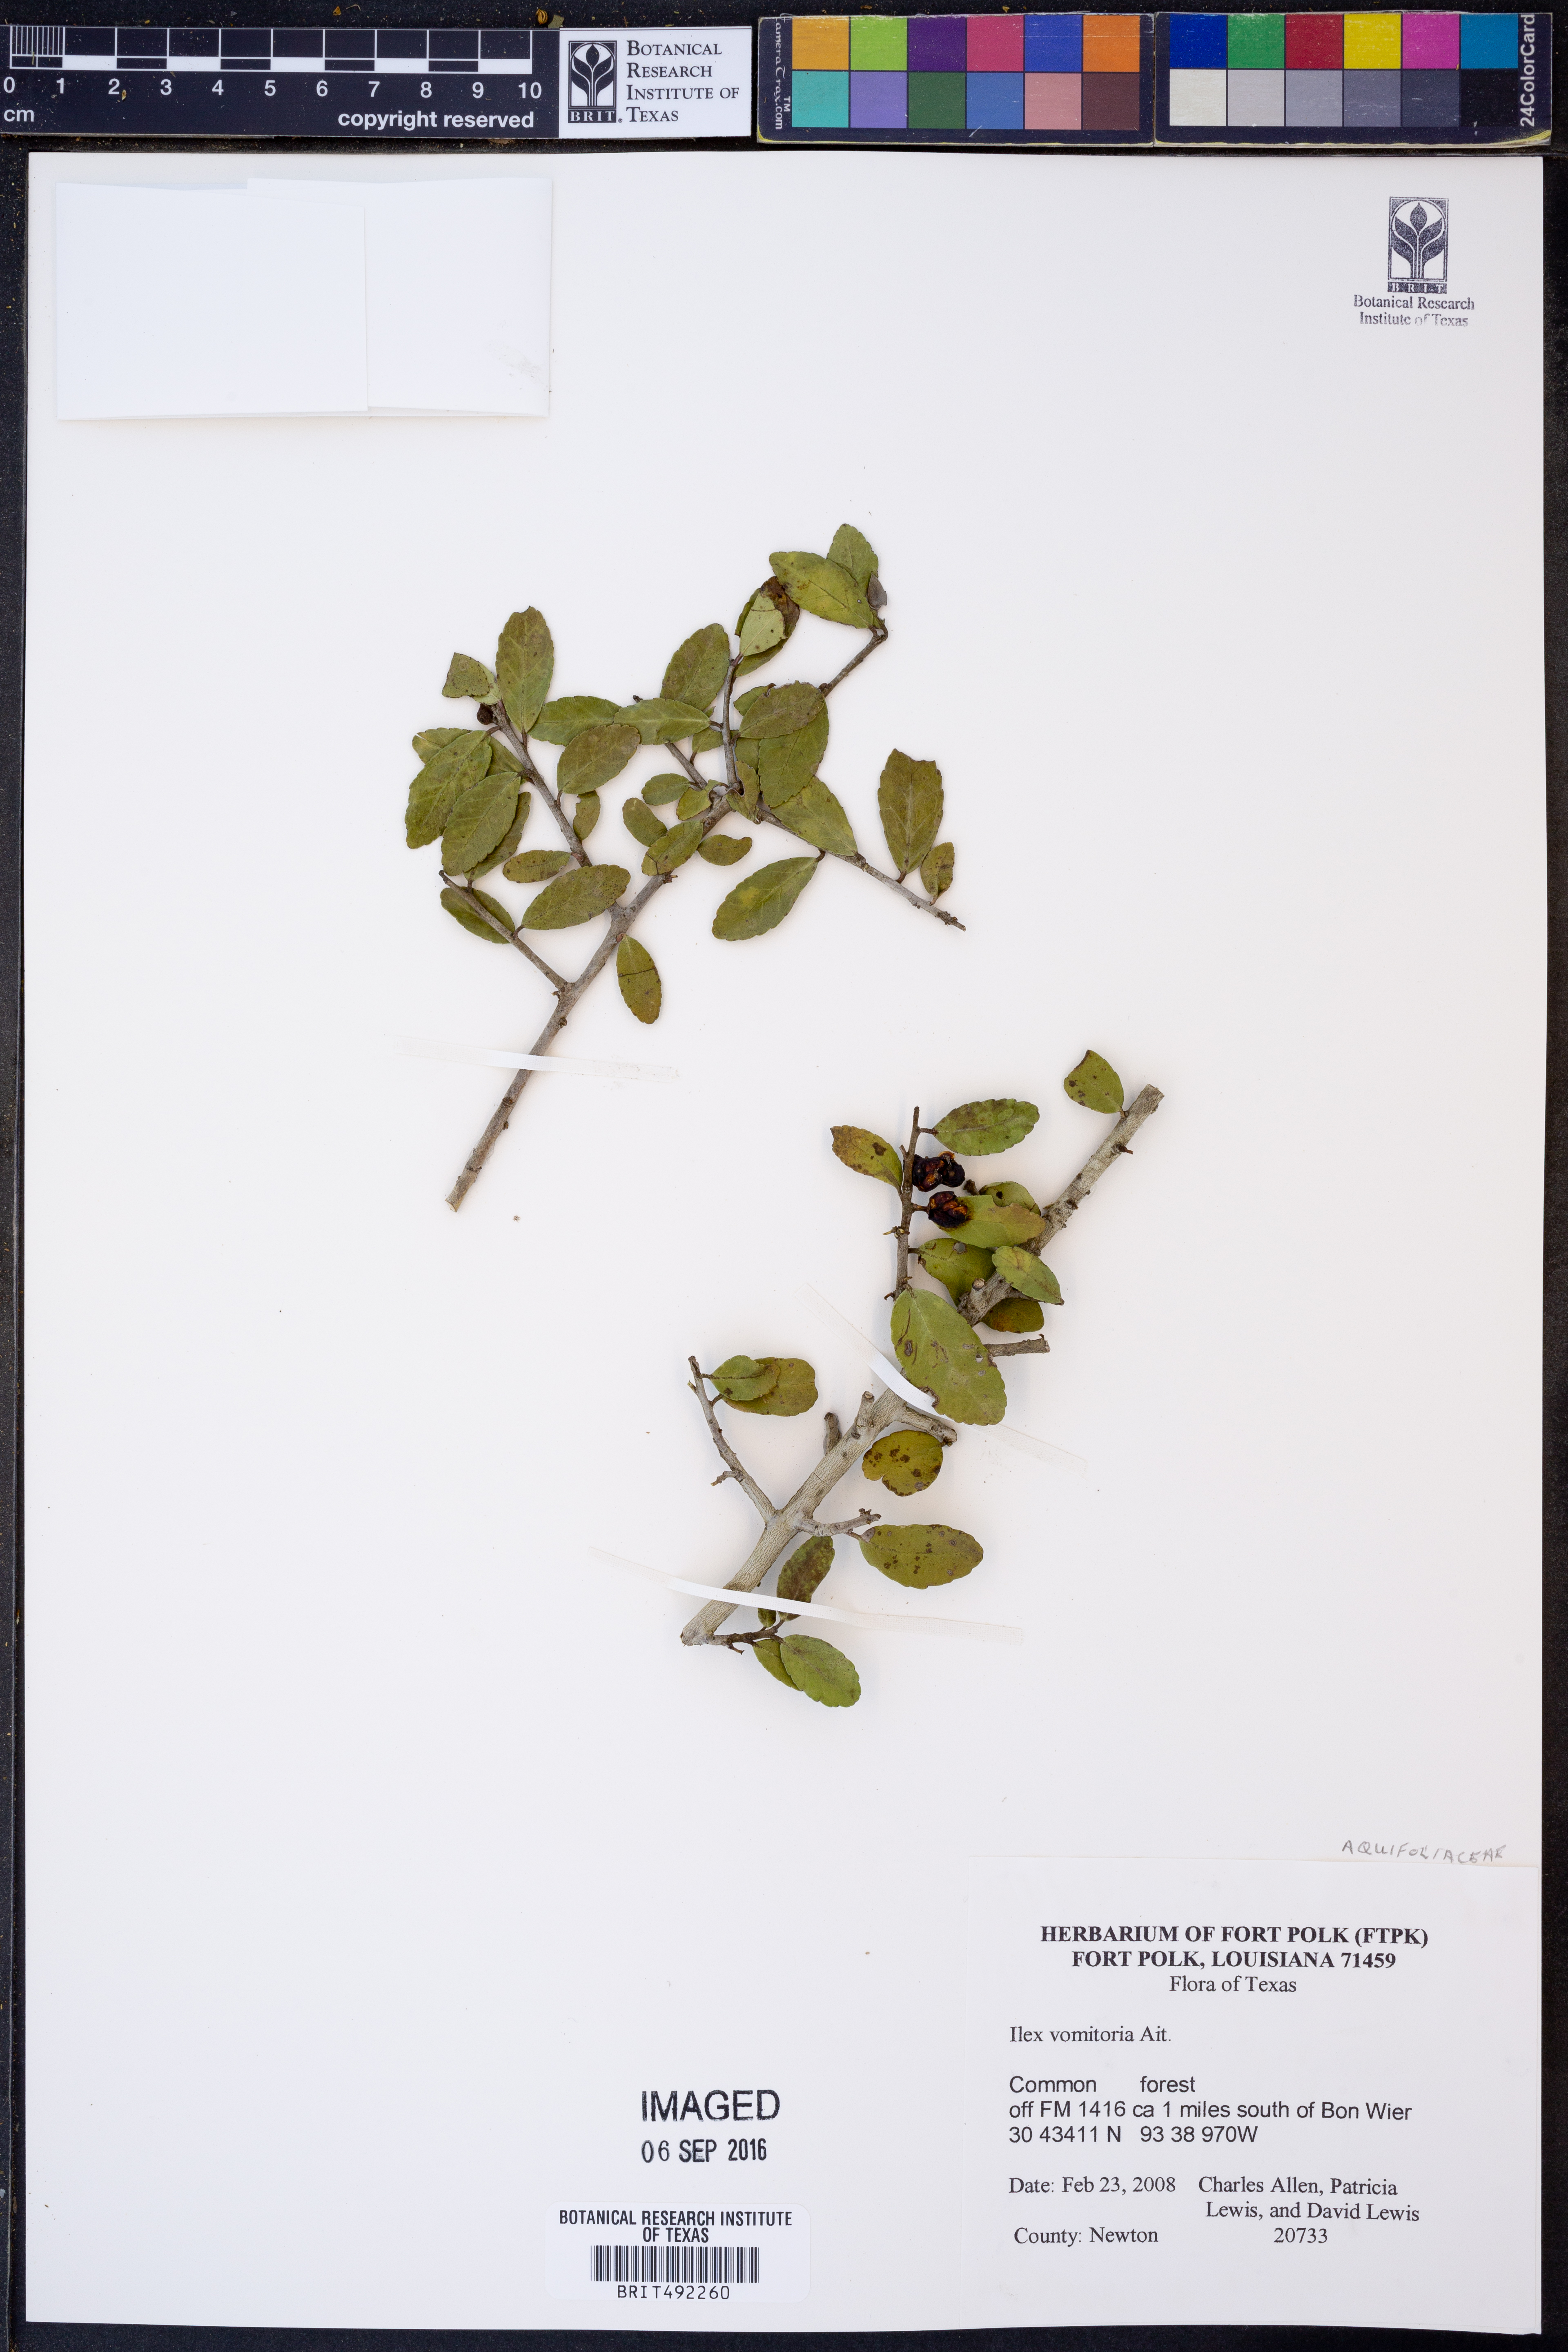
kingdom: Plantae
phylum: Tracheophyta
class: Magnoliopsida
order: Aquifoliales
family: Aquifoliaceae
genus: Ilex
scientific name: Ilex vomitoria
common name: Yaupon holly
